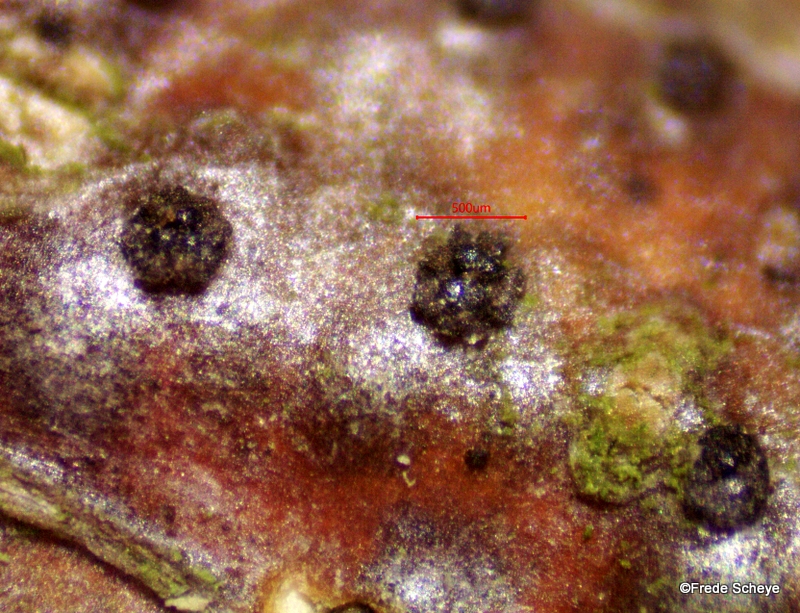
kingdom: Fungi
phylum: Ascomycota
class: Sordariomycetes
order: Xylariales
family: Diatrypaceae
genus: Eutypella
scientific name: Eutypella quaternata
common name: bøge-korsprik
